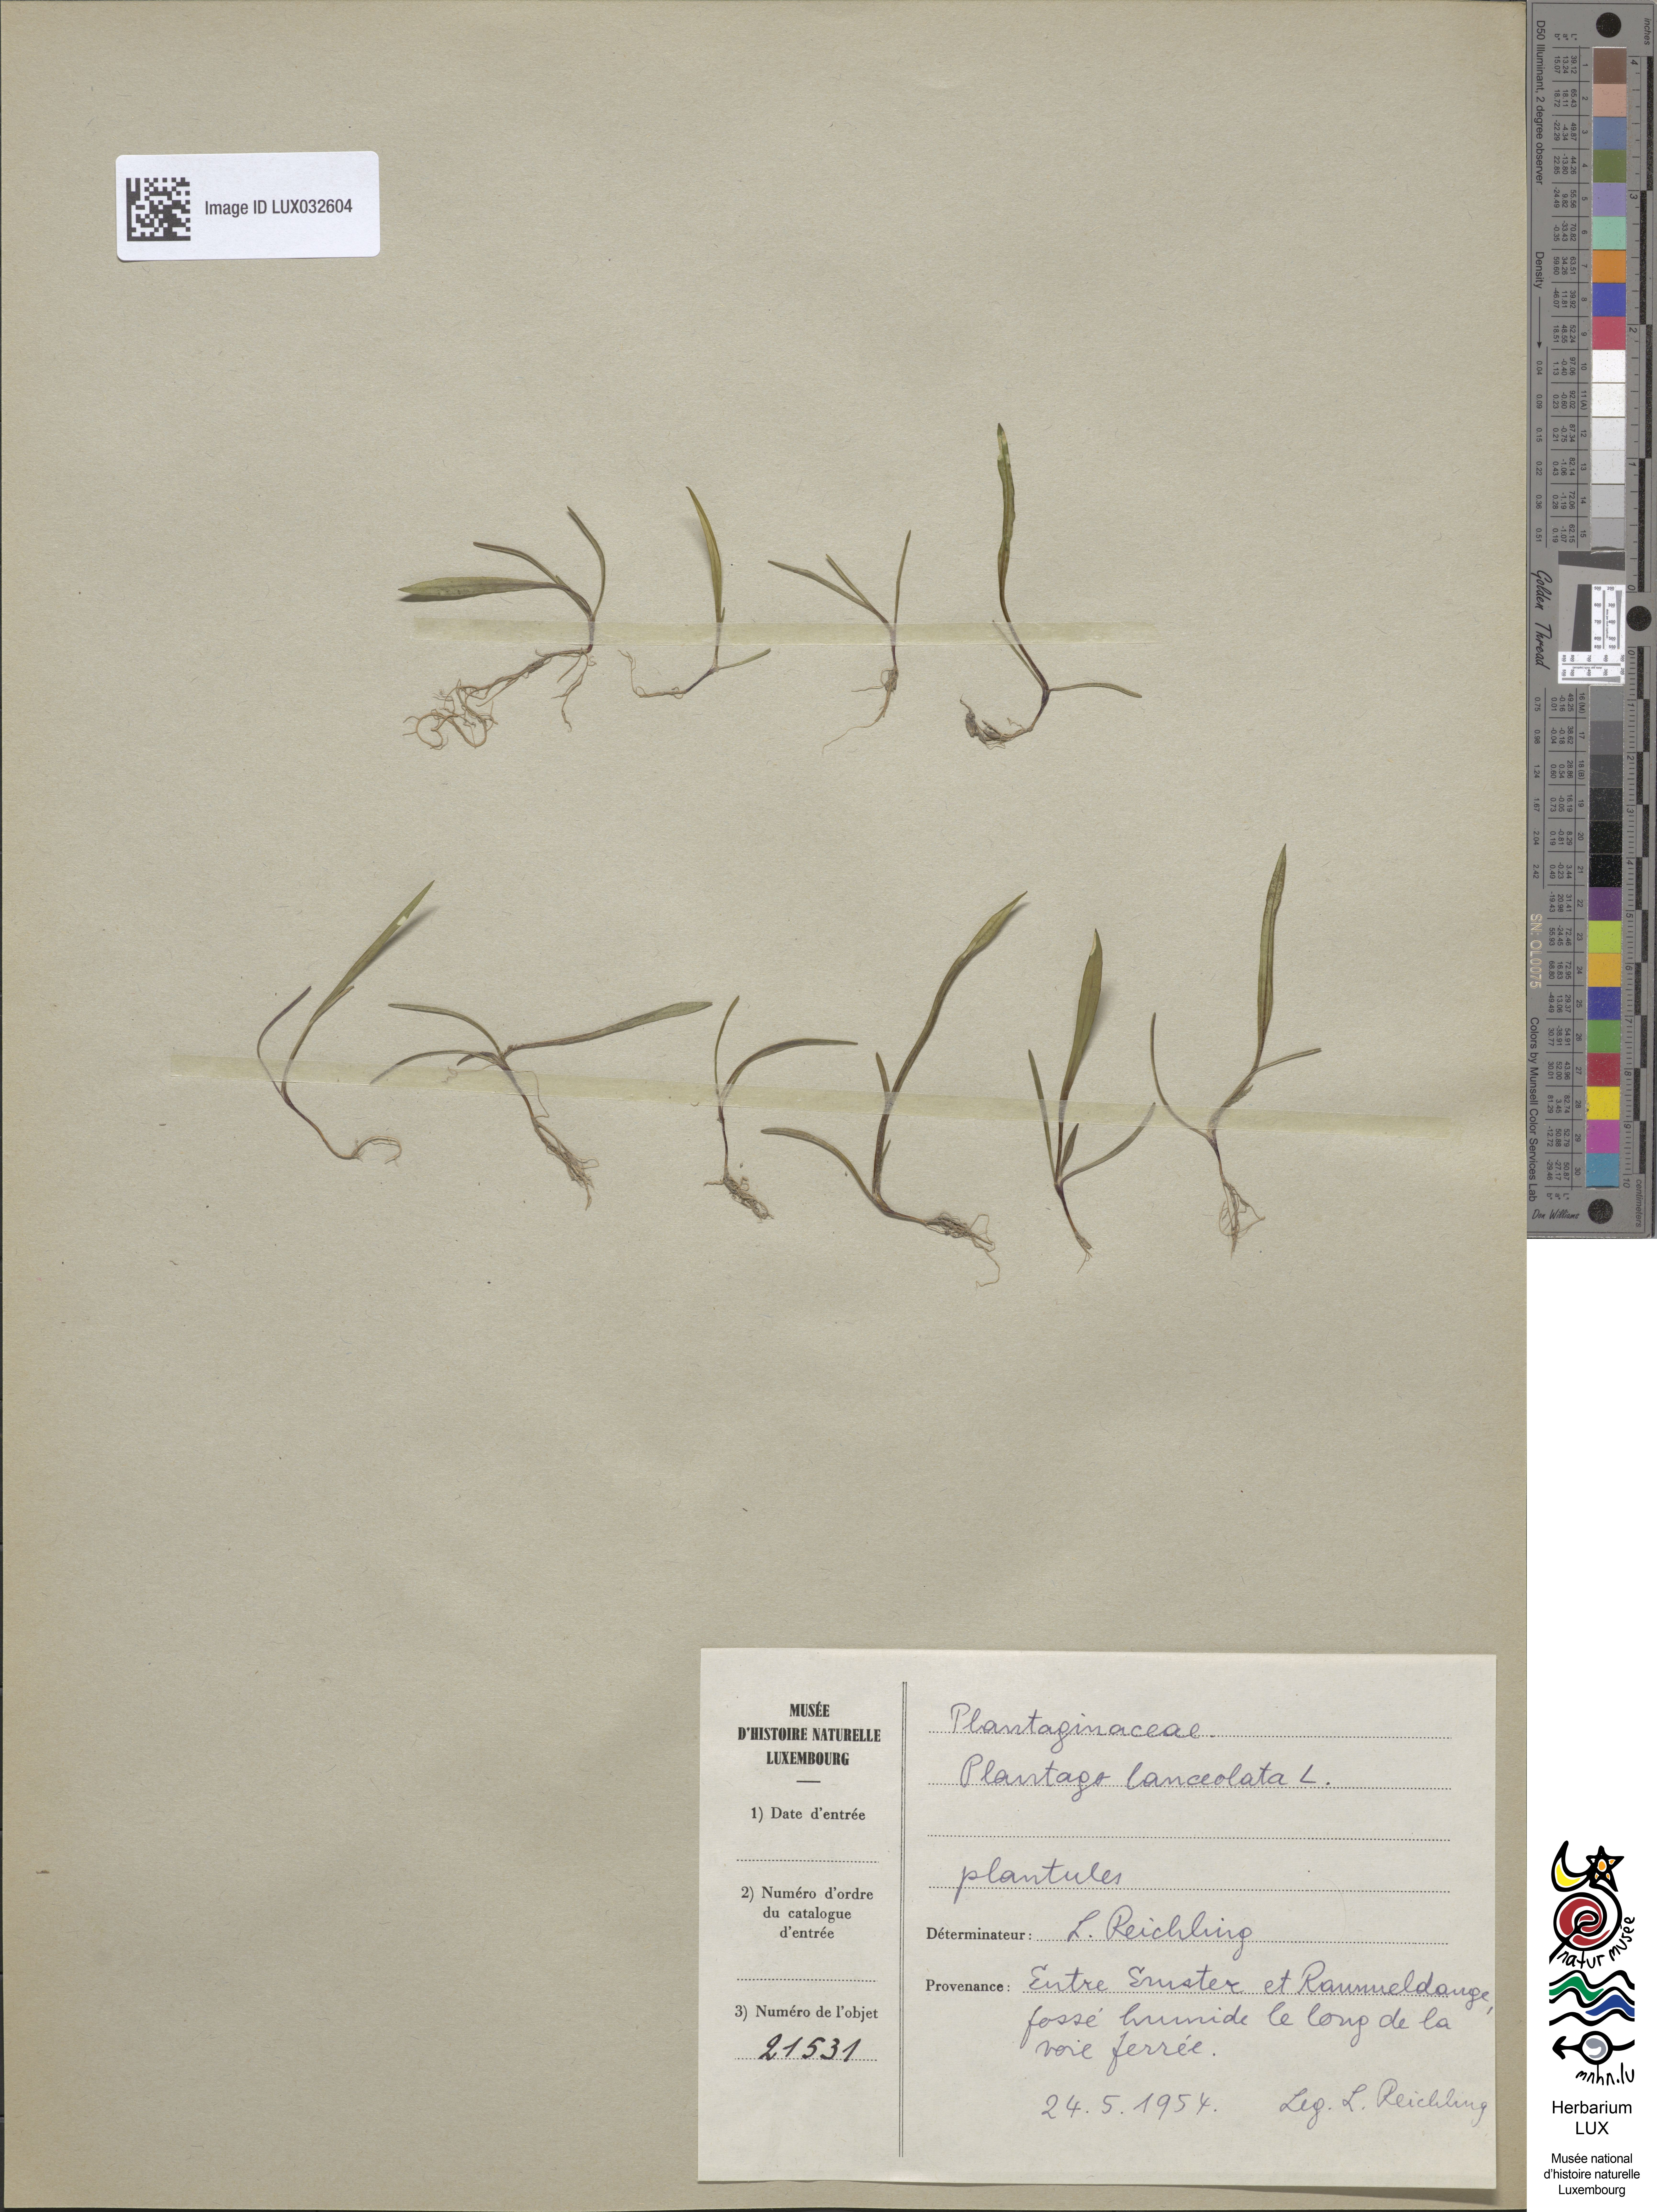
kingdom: Plantae
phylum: Tracheophyta
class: Magnoliopsida
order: Lamiales
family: Plantaginaceae
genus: Plantago
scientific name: Plantago lanceolata
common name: Ribwort plantain
